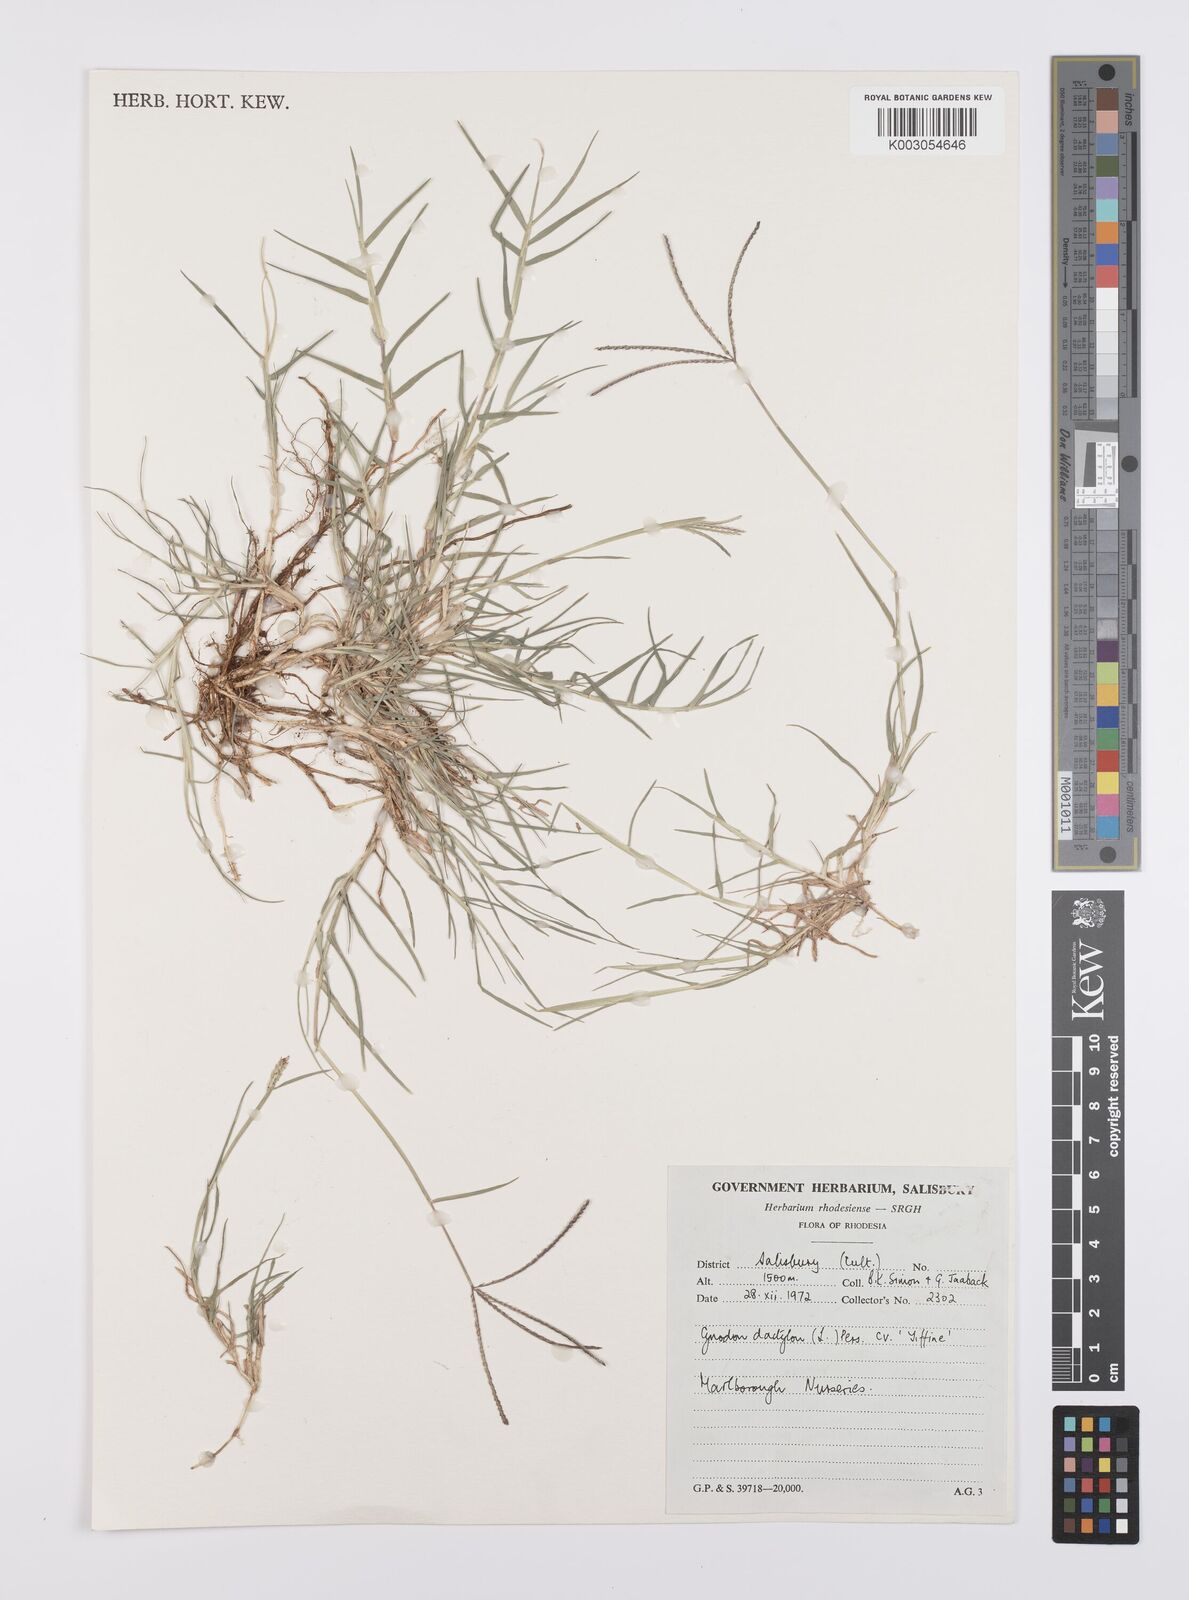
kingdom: Plantae
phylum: Tracheophyta
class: Liliopsida
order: Poales
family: Poaceae
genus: Cynodon
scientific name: Cynodon dactylon
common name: Bermuda grass
